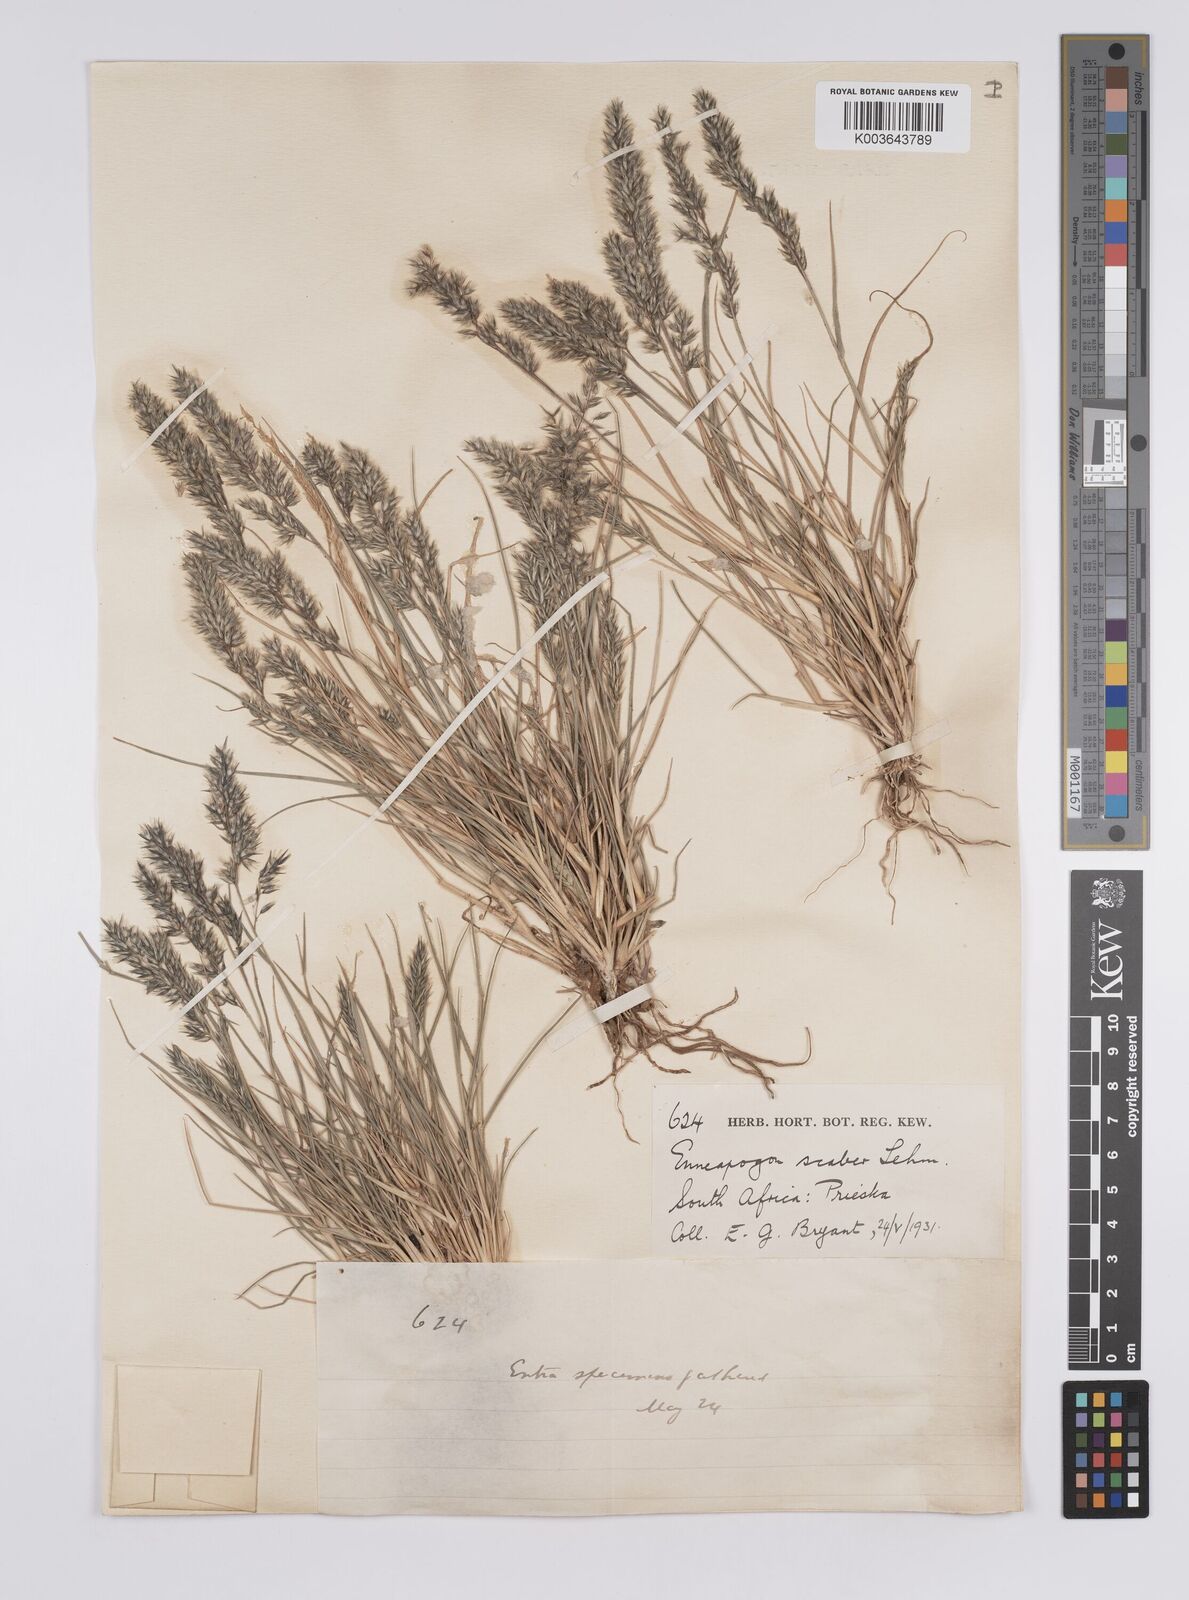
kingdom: Plantae
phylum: Tracheophyta
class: Liliopsida
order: Poales
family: Poaceae
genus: Enneapogon
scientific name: Enneapogon scaber
